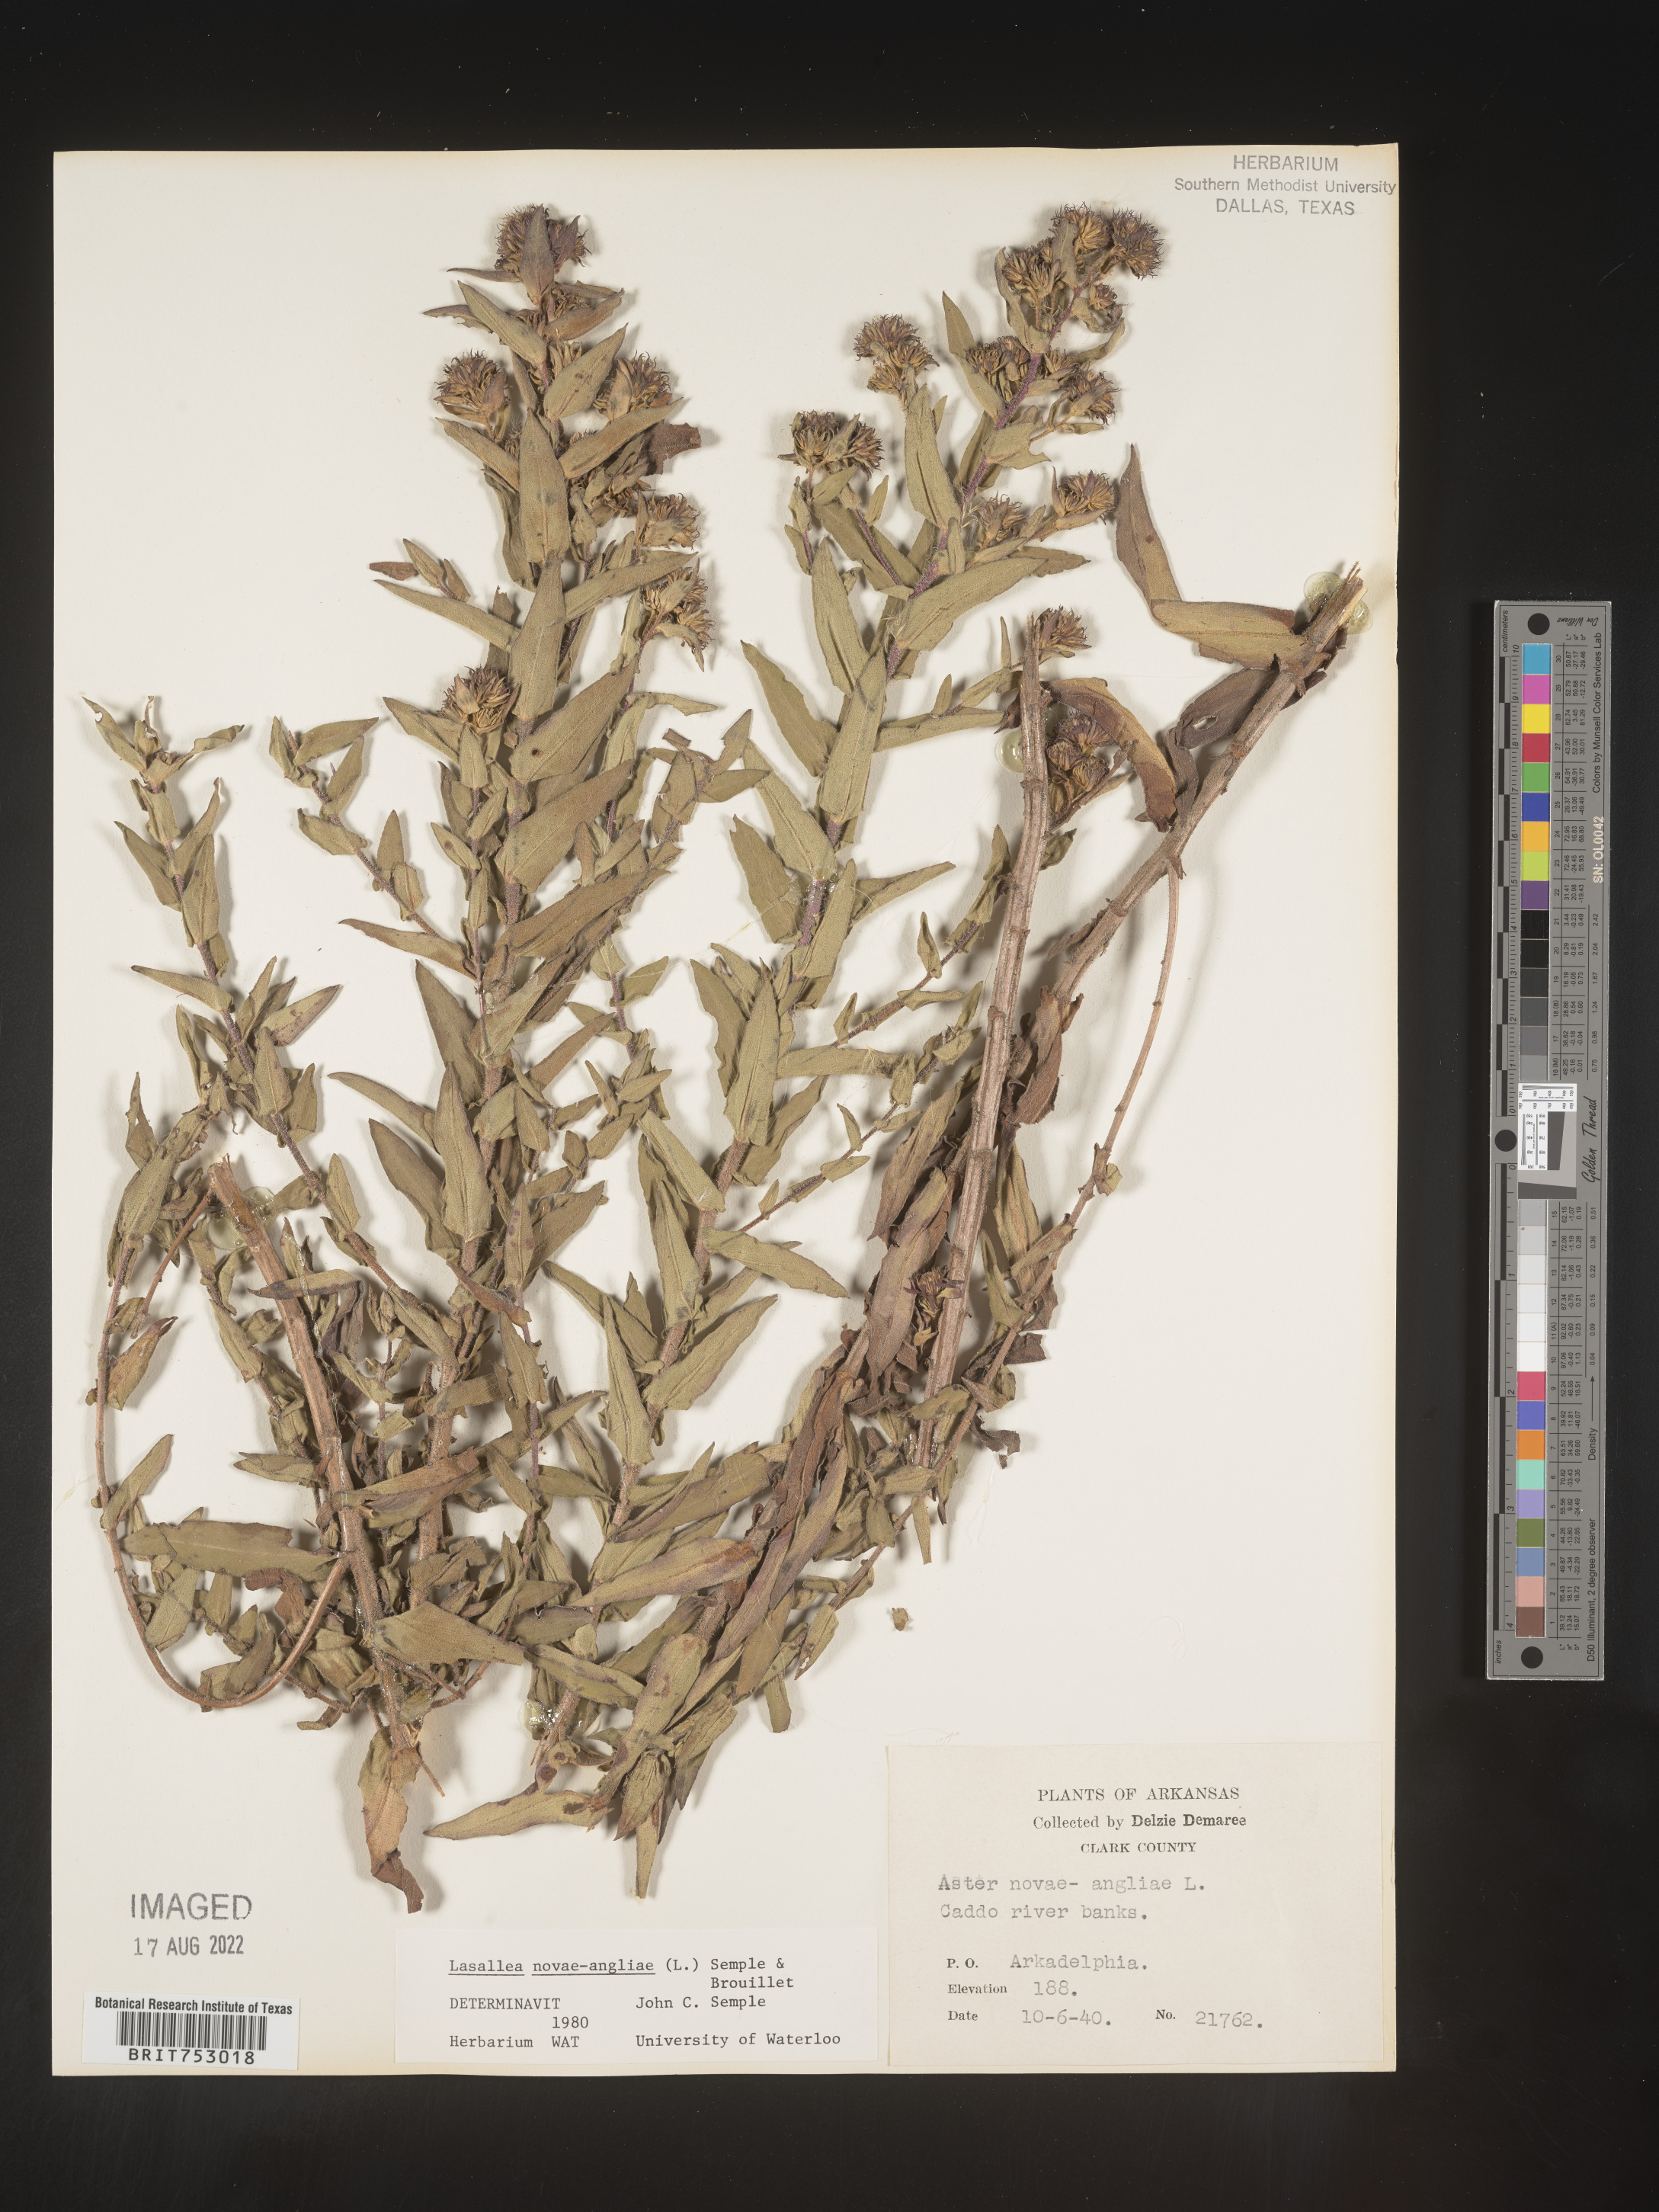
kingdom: Plantae
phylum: Tracheophyta
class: Magnoliopsida
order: Asterales
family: Asteraceae
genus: Symphyotrichum
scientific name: Symphyotrichum novae-angliae
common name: Michaelmas daisy
